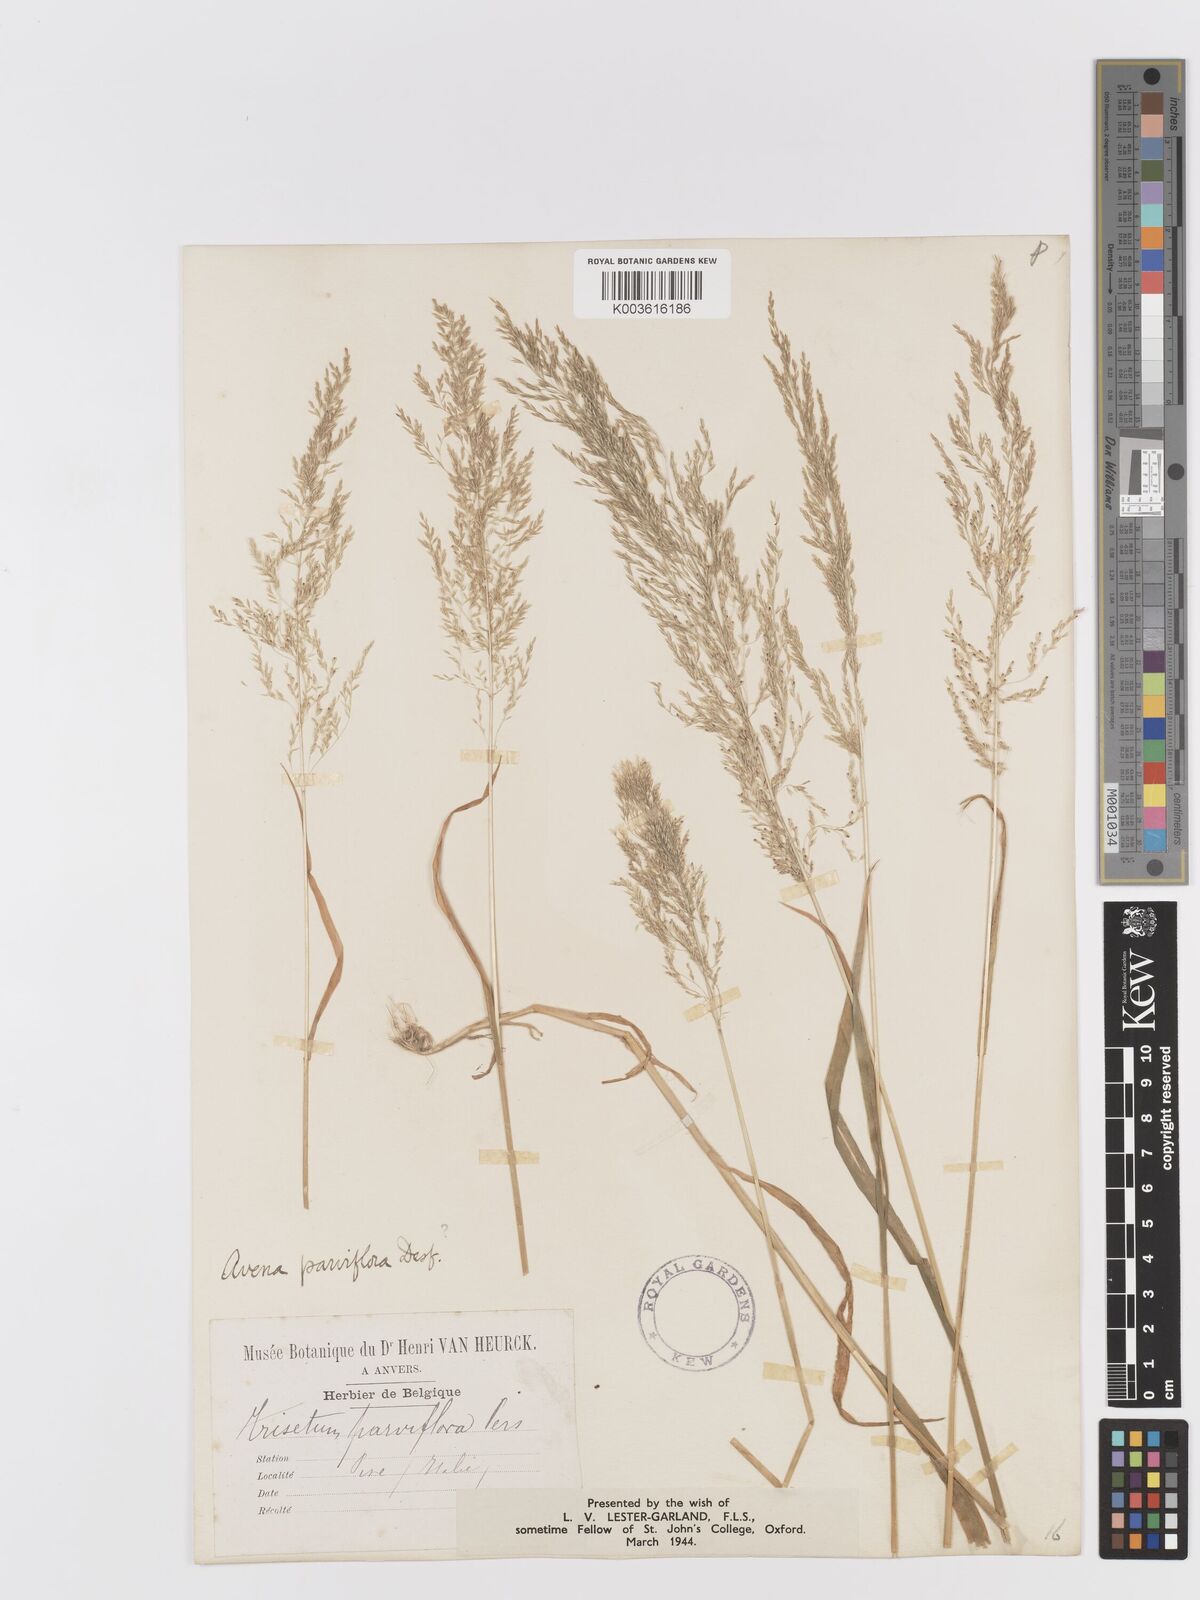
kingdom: Plantae
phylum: Tracheophyta
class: Liliopsida
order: Poales
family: Poaceae
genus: Trisetaria
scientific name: Trisetaria parviflora
